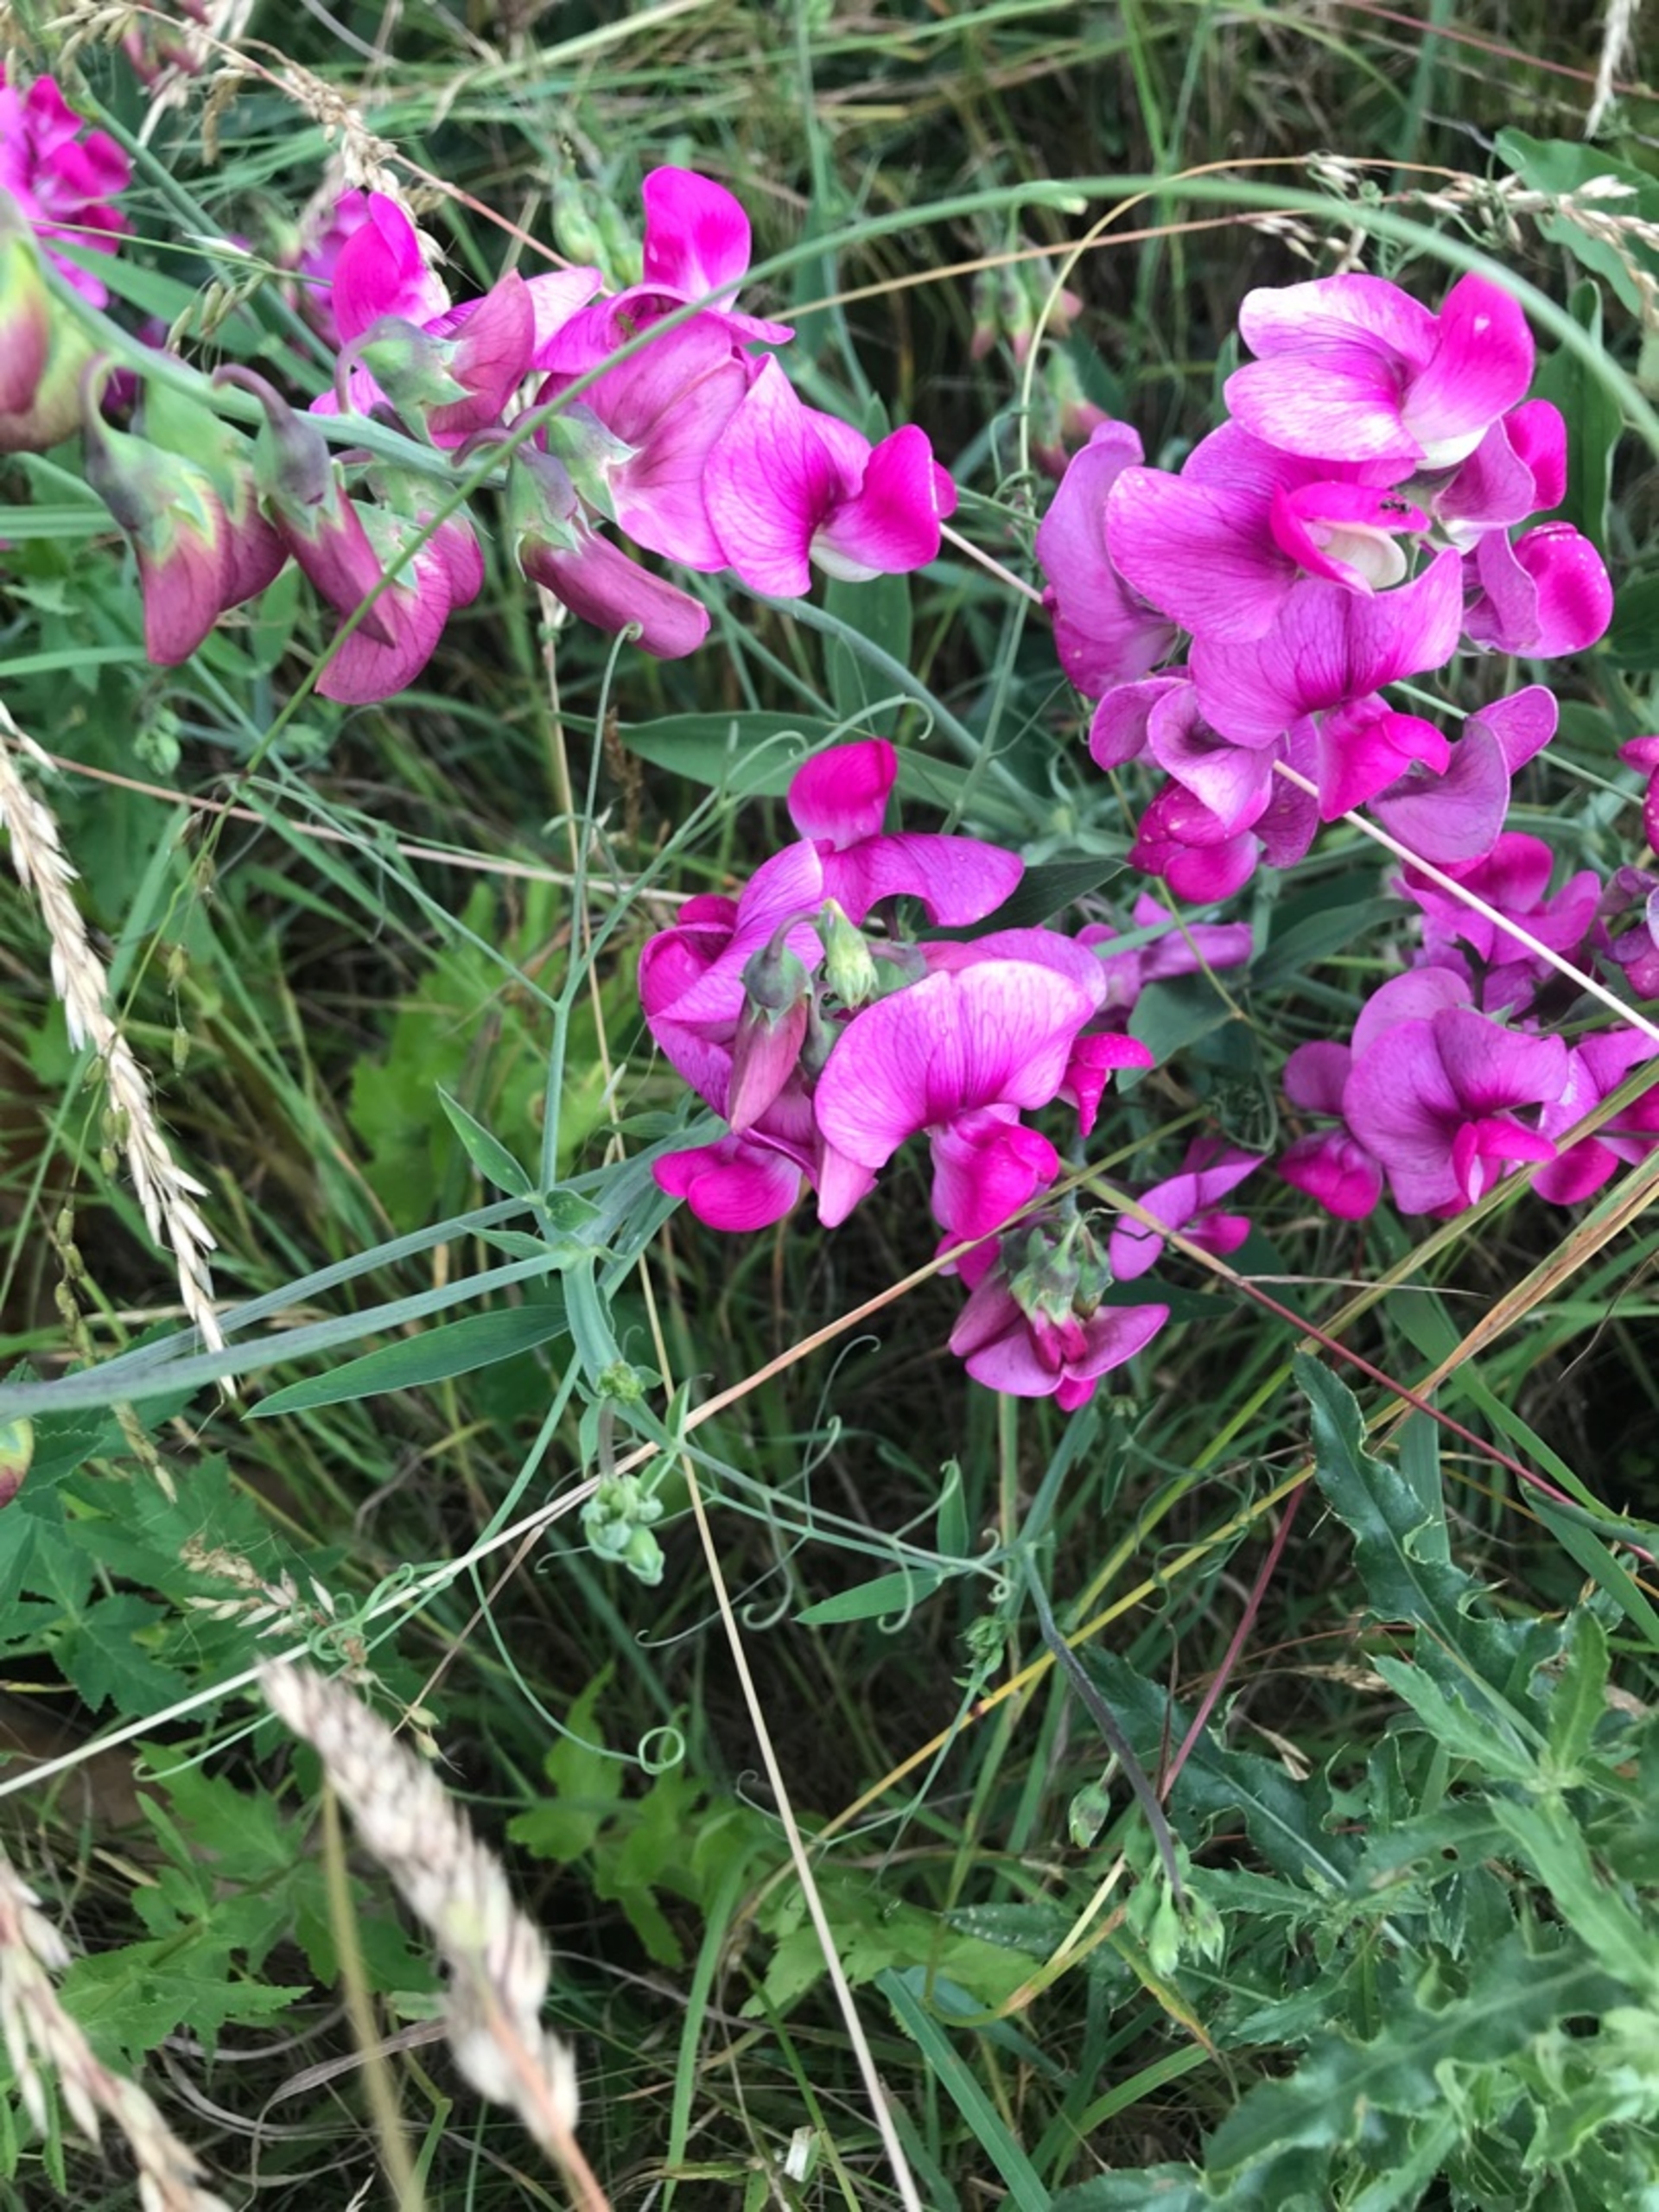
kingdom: Plantae
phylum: Tracheophyta
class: Magnoliopsida
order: Fabales
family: Fabaceae
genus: Lathyrus
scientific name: Lathyrus latifolius
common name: Flerårig ærteblomst
